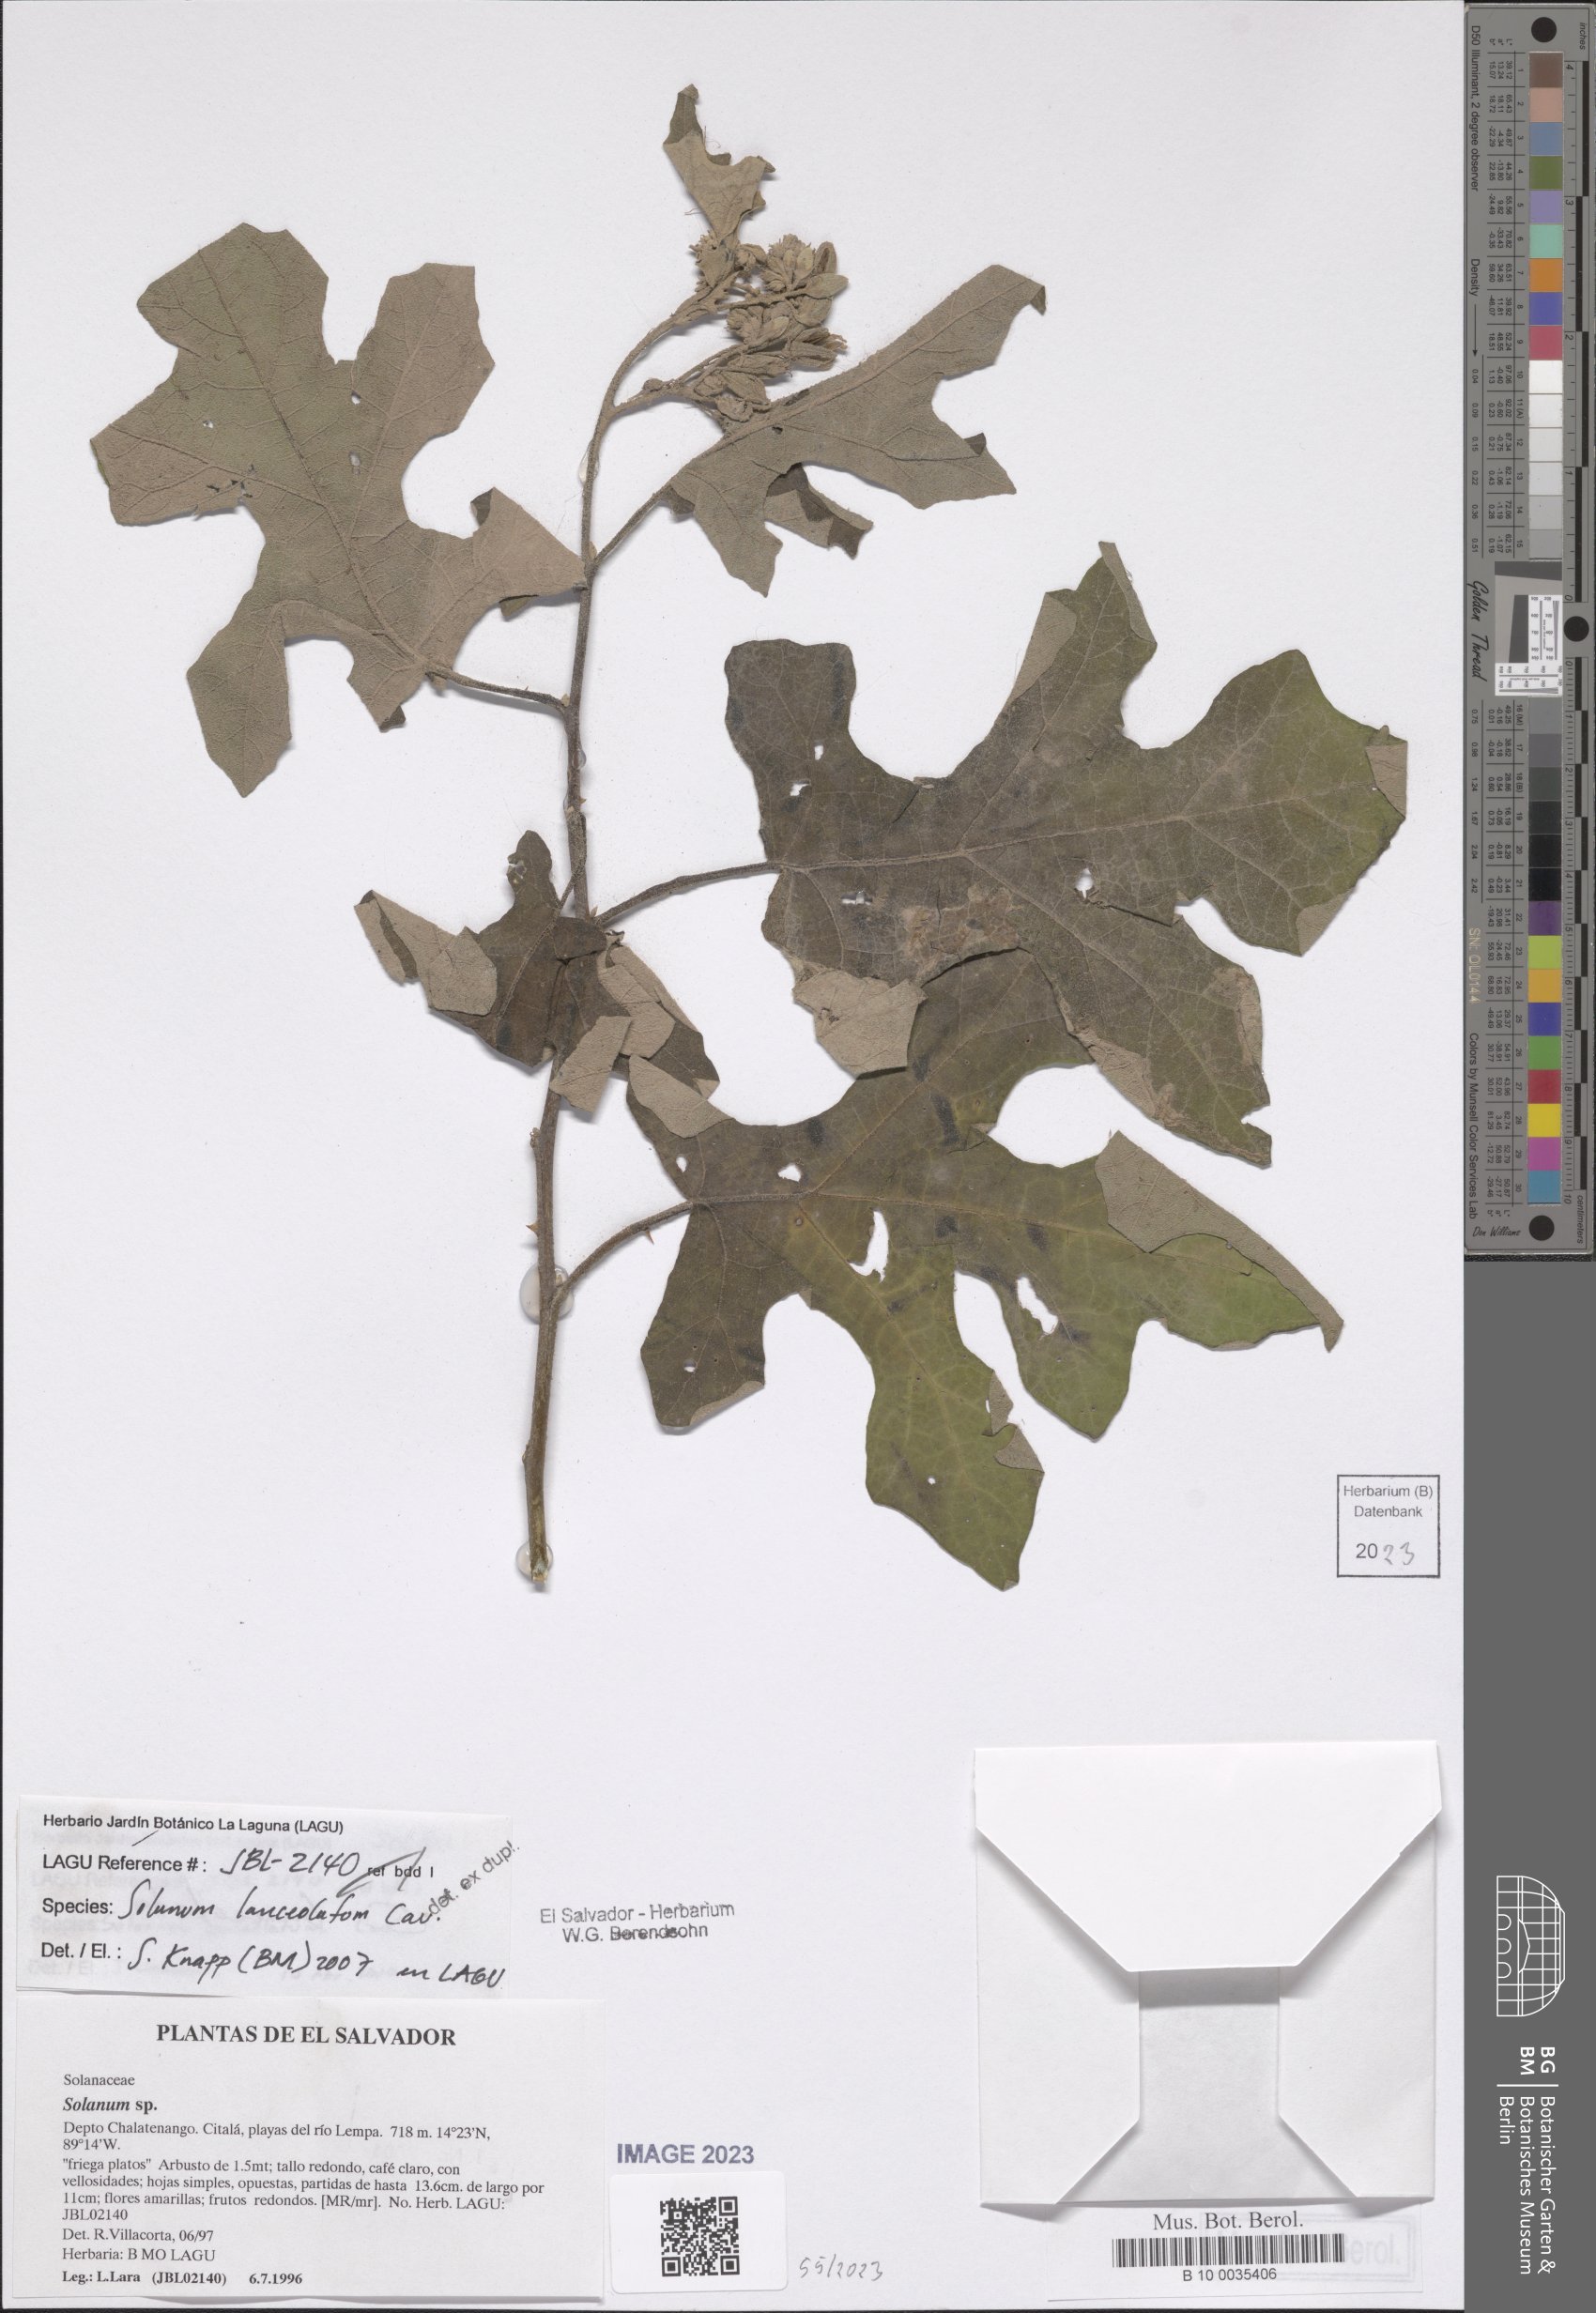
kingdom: Plantae
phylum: Tracheophyta
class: Magnoliopsida
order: Solanales
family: Solanaceae
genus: Solanum
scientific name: Solanum lanceolatum
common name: Orangeberry nightshade
